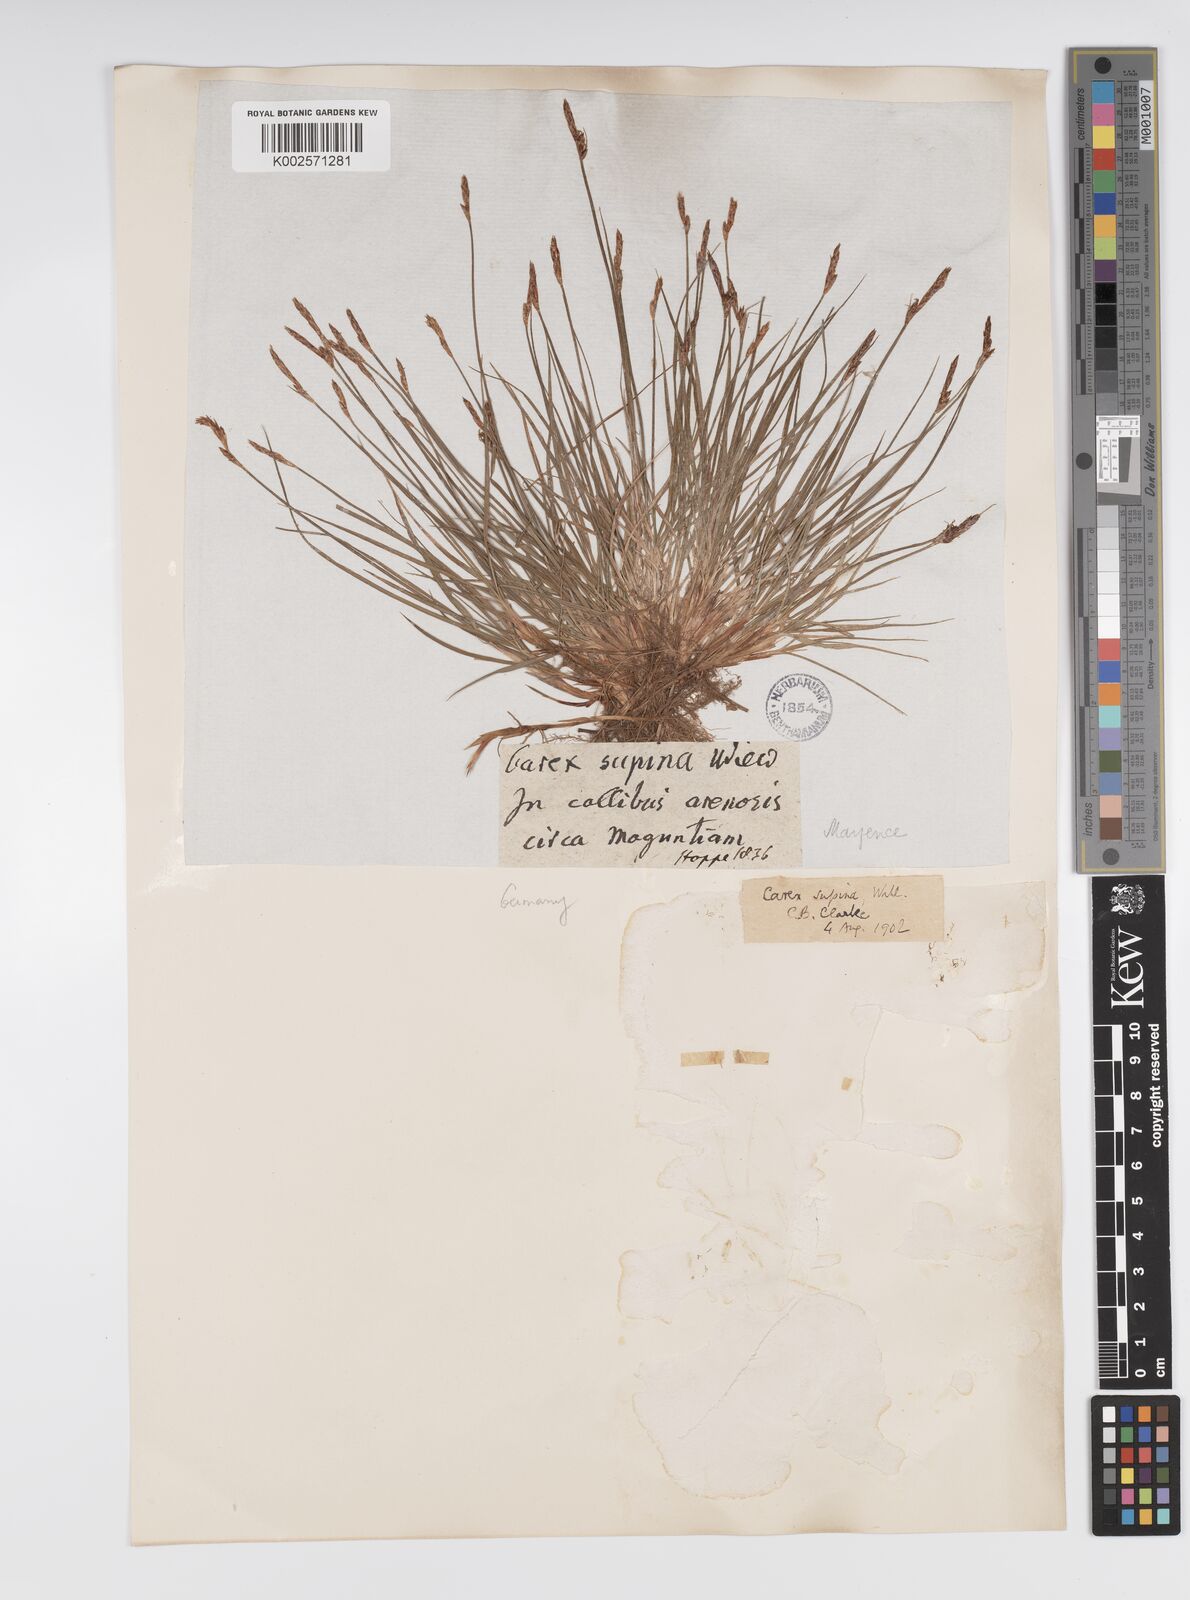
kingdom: Plantae
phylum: Tracheophyta
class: Liliopsida
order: Poales
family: Cyperaceae
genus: Carex
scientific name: Carex supina
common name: Lying-back sedge
